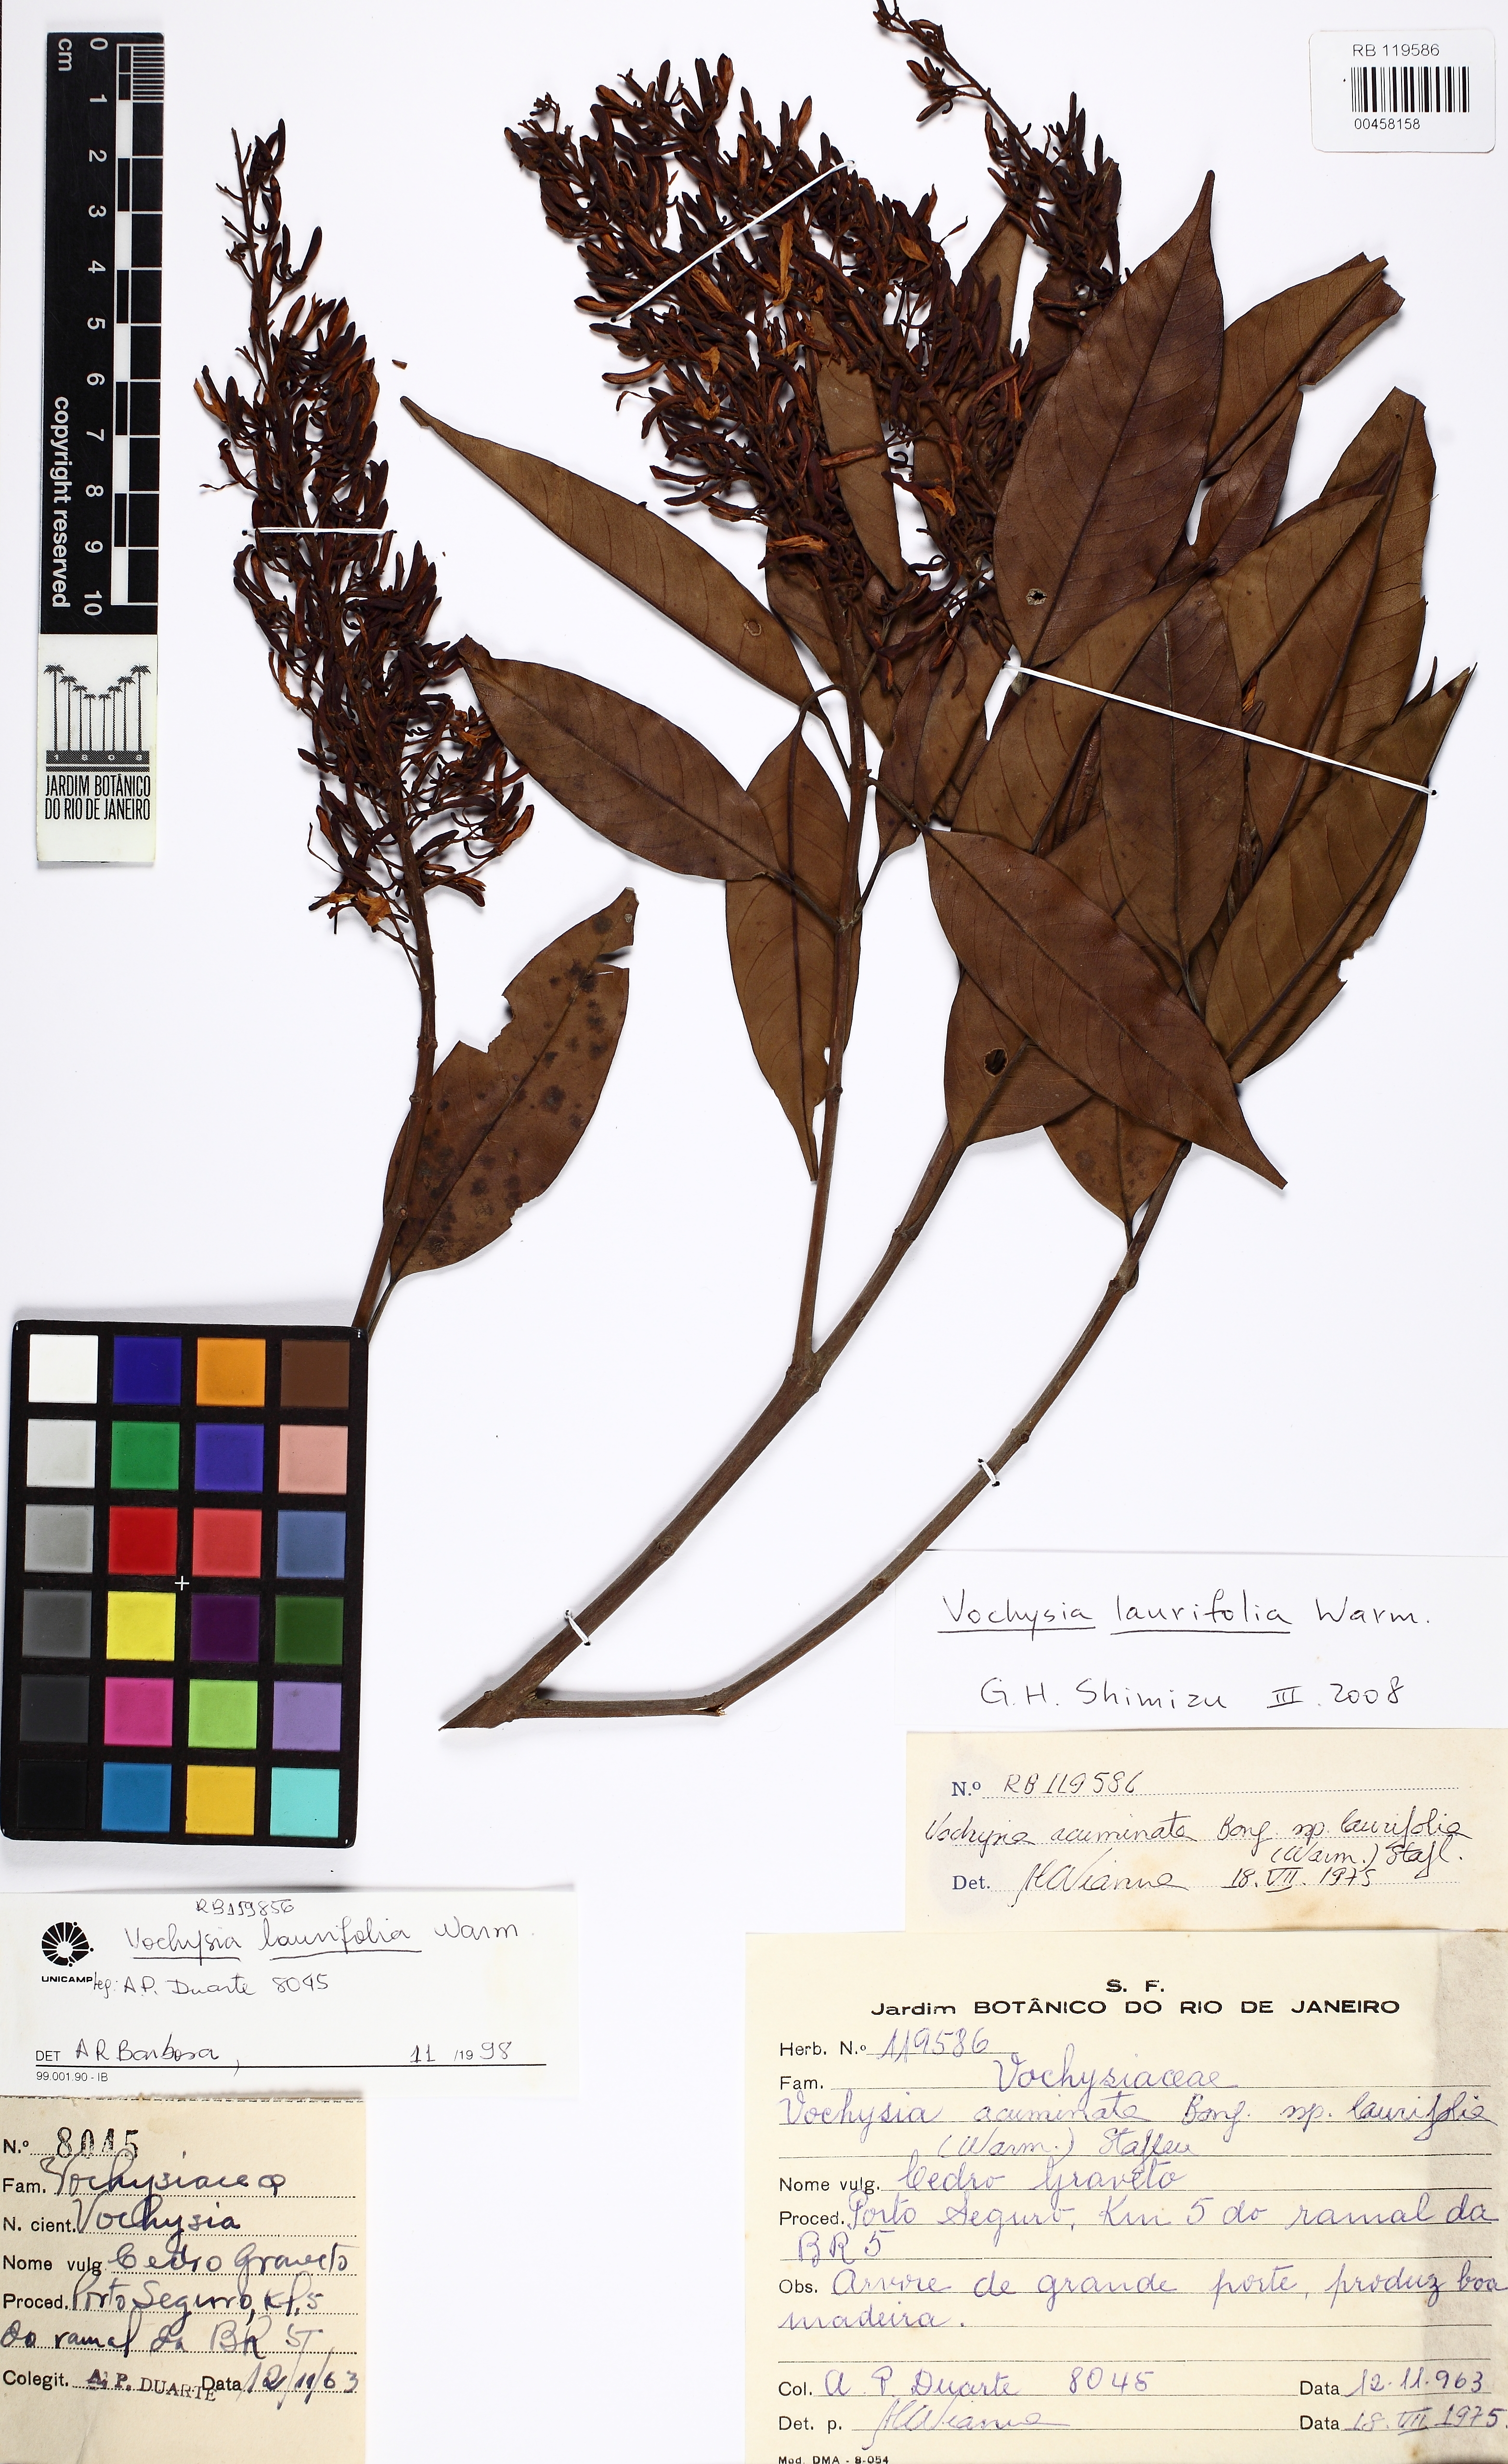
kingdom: Plantae
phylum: Tracheophyta
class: Magnoliopsida
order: Myrtales
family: Vochysiaceae
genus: Vochysia
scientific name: Vochysia laurifolia
